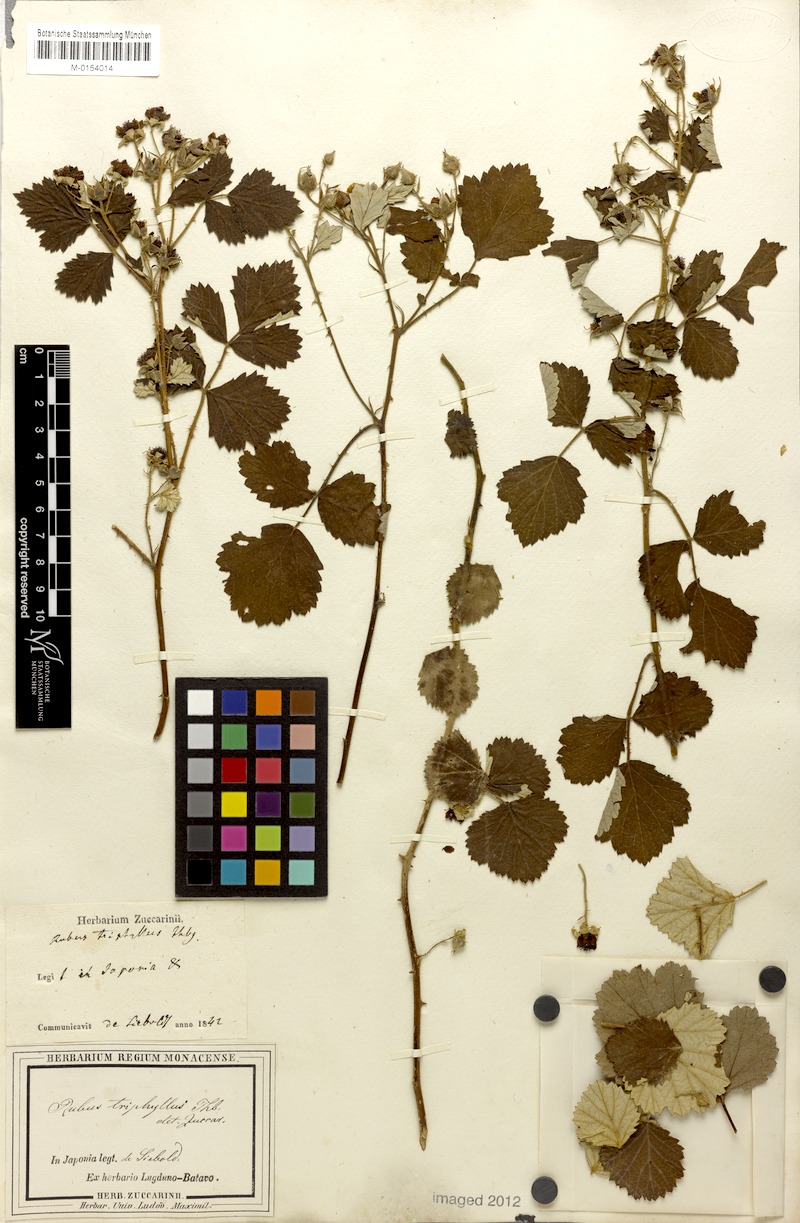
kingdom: Plantae
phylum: Tracheophyta
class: Magnoliopsida
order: Rosales
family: Rosaceae
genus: Rubus
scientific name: Rubus parvifolius
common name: Threeleaf blackberry
